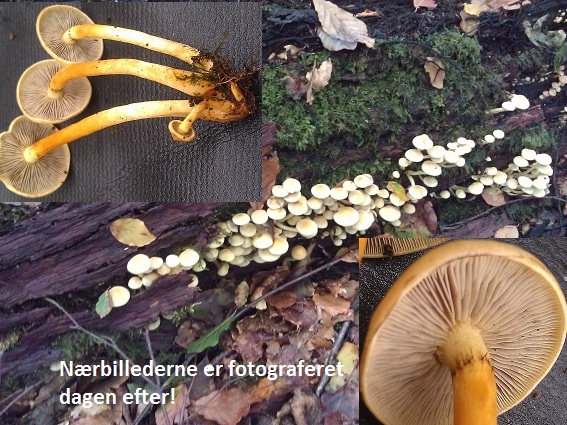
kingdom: Fungi
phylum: Basidiomycota
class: Agaricomycetes
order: Agaricales
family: Strophariaceae
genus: Hypholoma
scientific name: Hypholoma fasciculare
